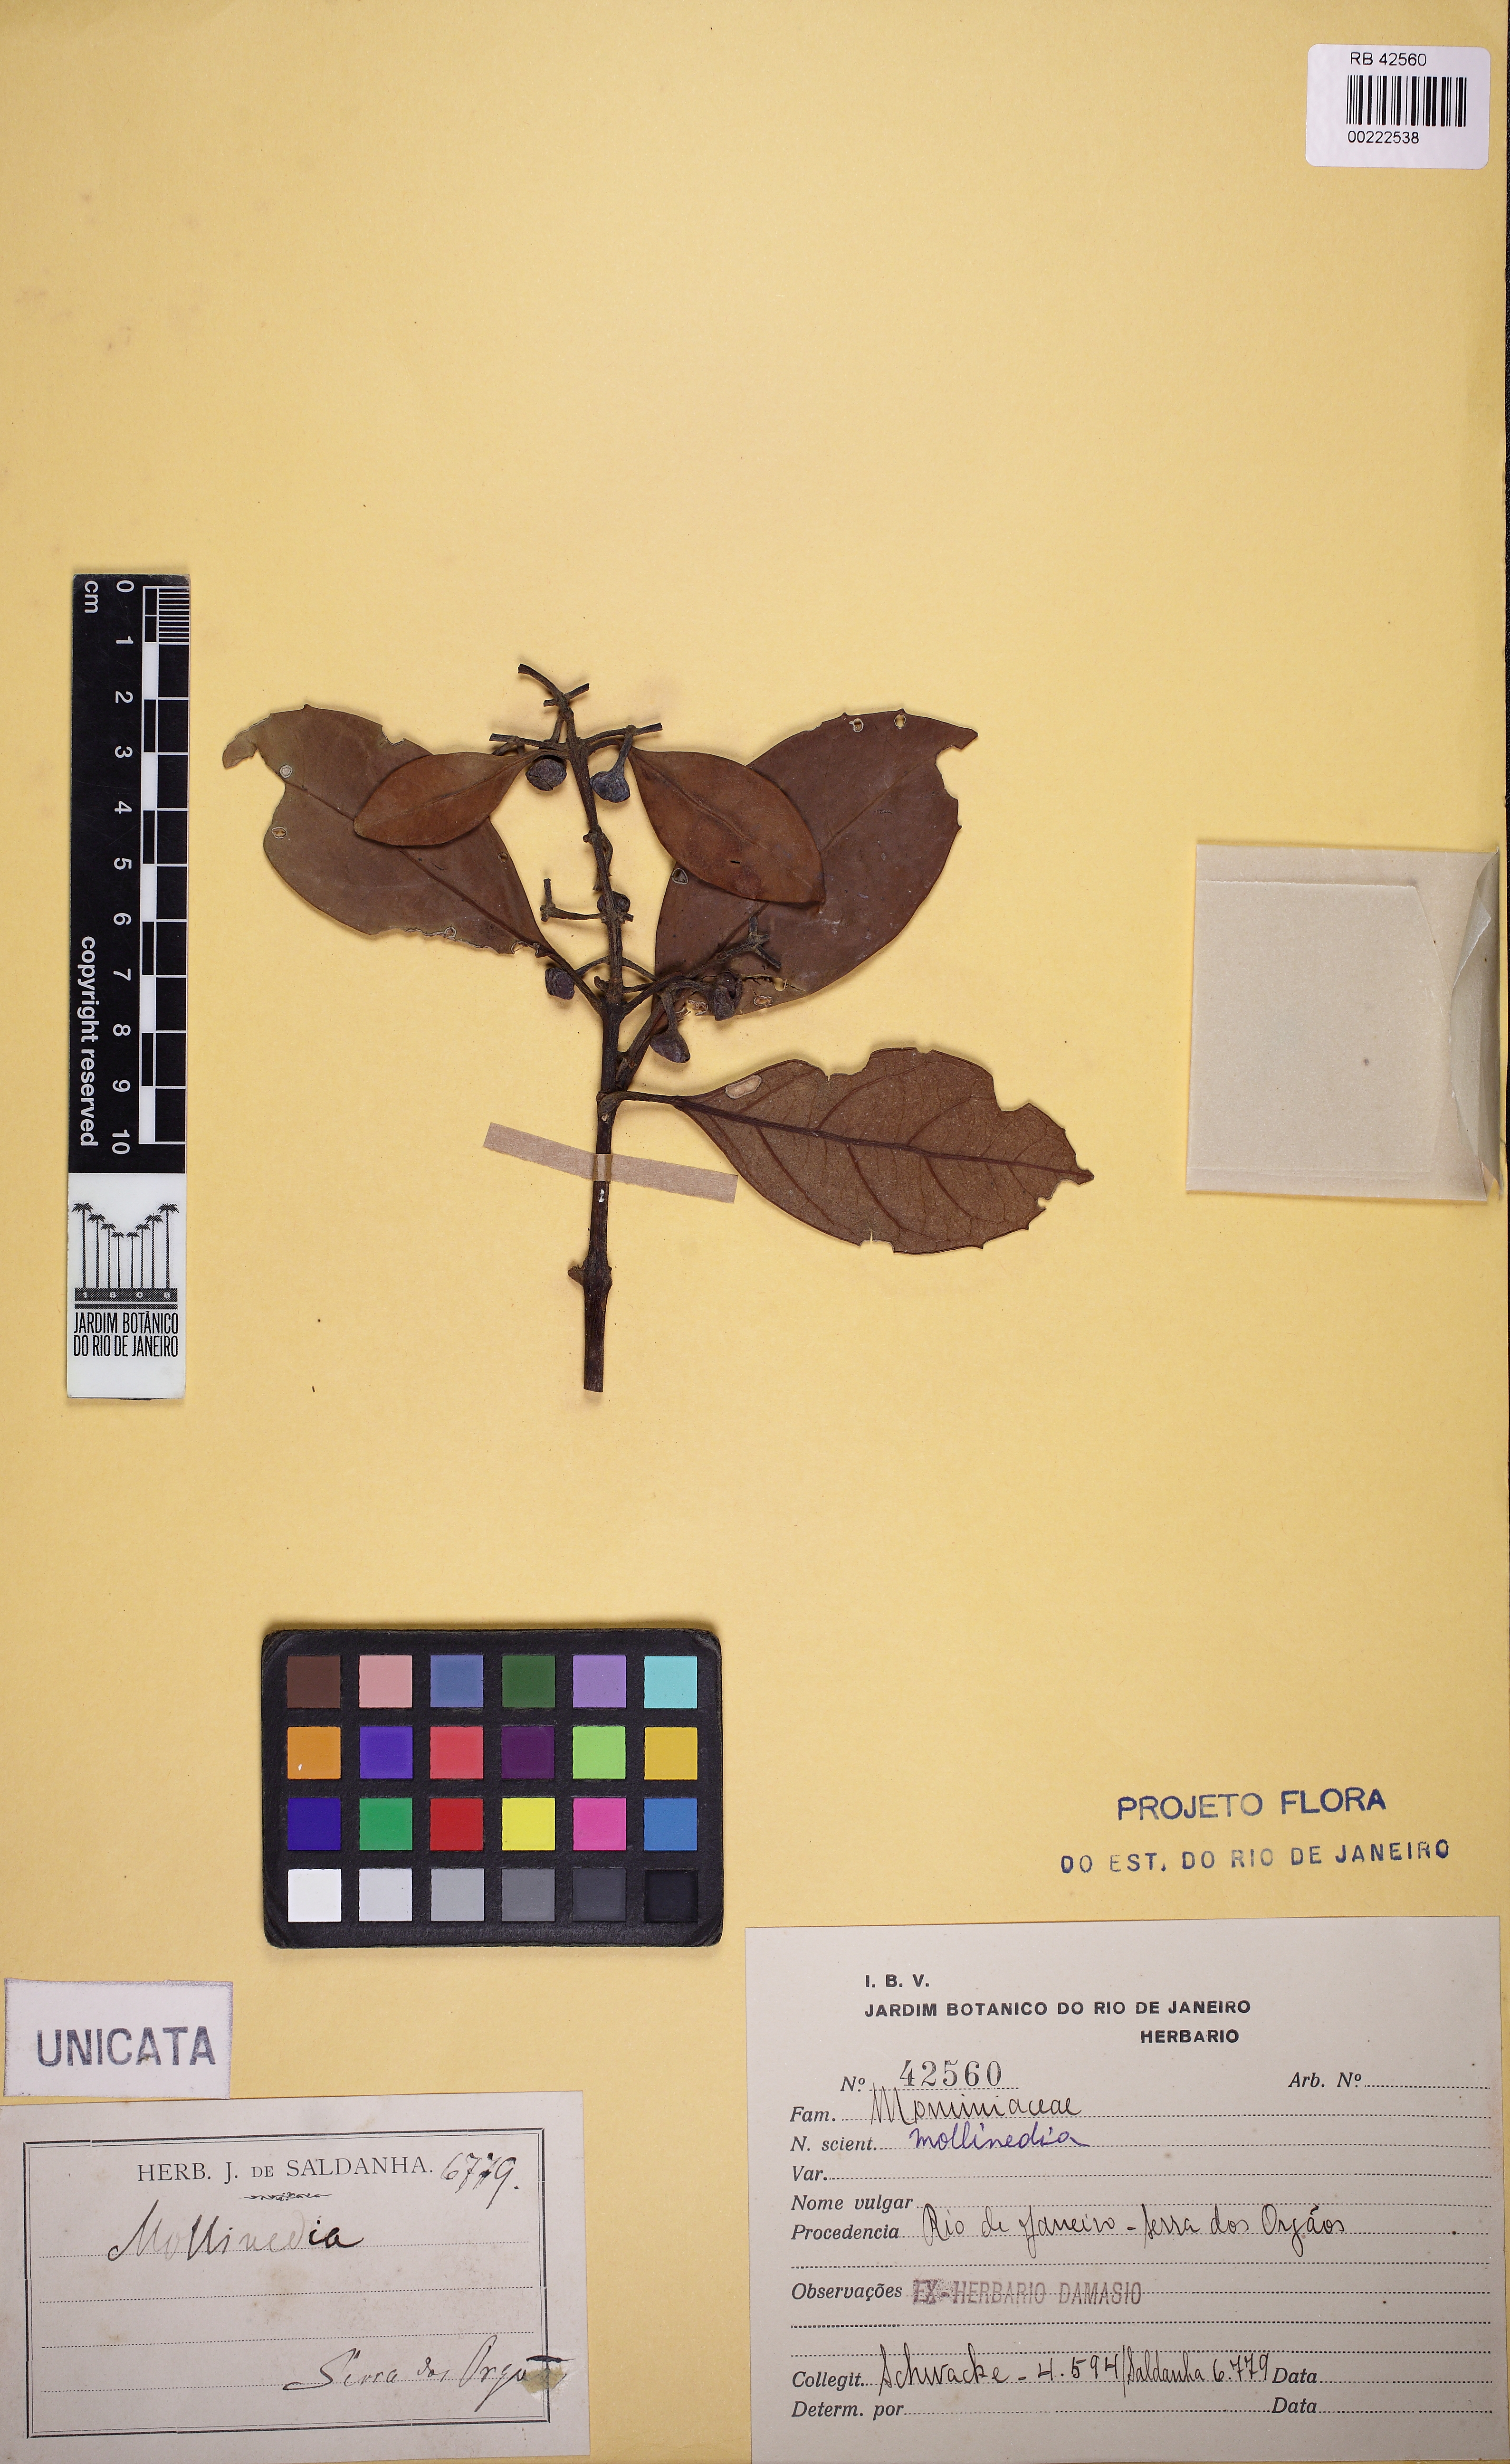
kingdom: Plantae
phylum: Tracheophyta
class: Magnoliopsida
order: Laurales
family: Monimiaceae
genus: Mollinedia
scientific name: Mollinedia gilgiana
